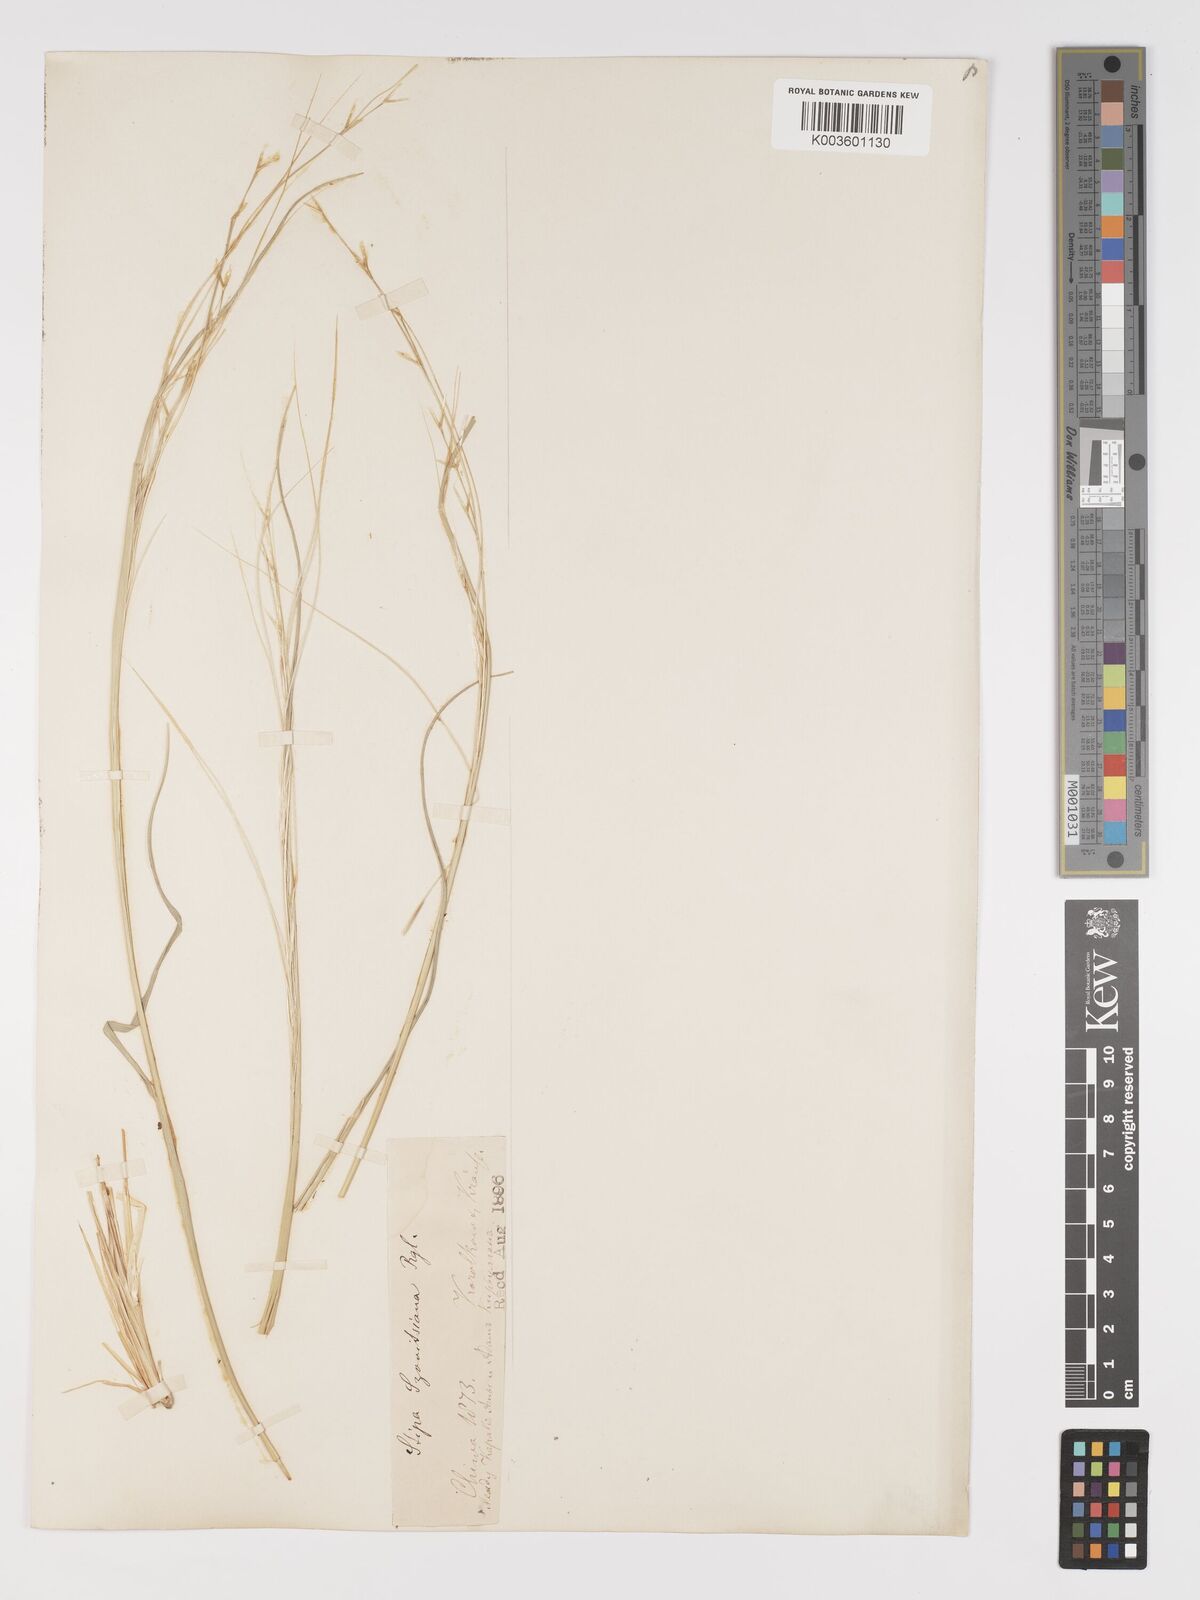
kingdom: Plantae
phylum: Tracheophyta
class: Liliopsida
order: Poales
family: Poaceae
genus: Stipa
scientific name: Stipa arabica
